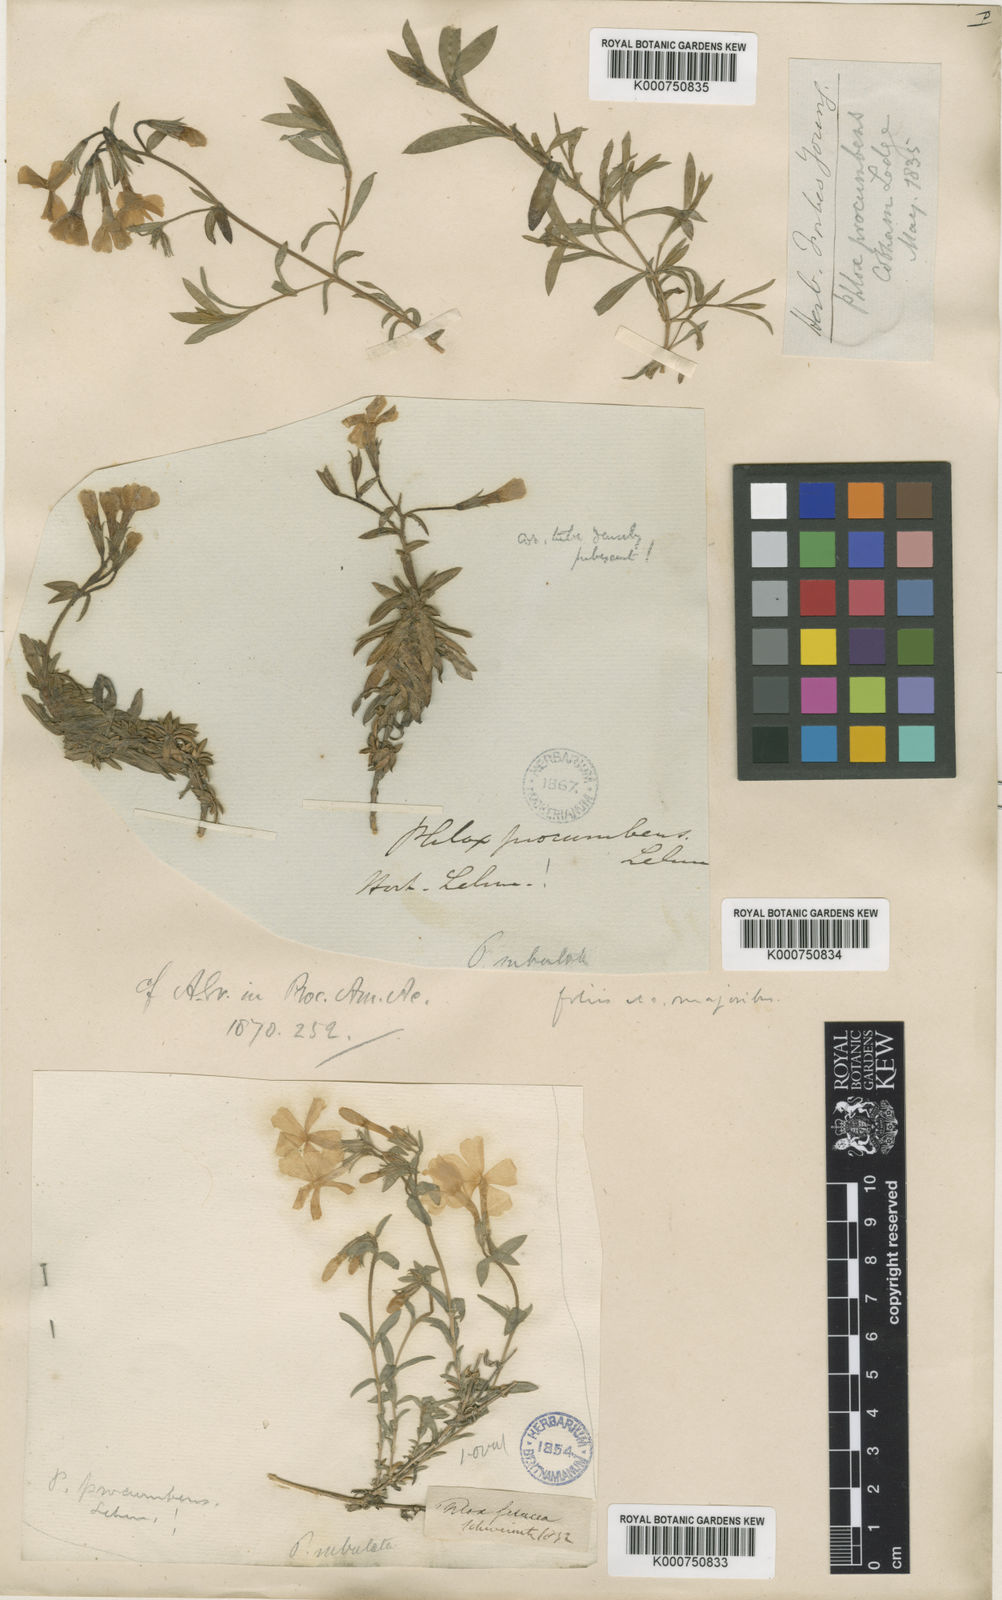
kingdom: Plantae
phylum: Tracheophyta
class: Magnoliopsida
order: Ericales
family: Polemoniaceae
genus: Phlox
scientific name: Phlox
